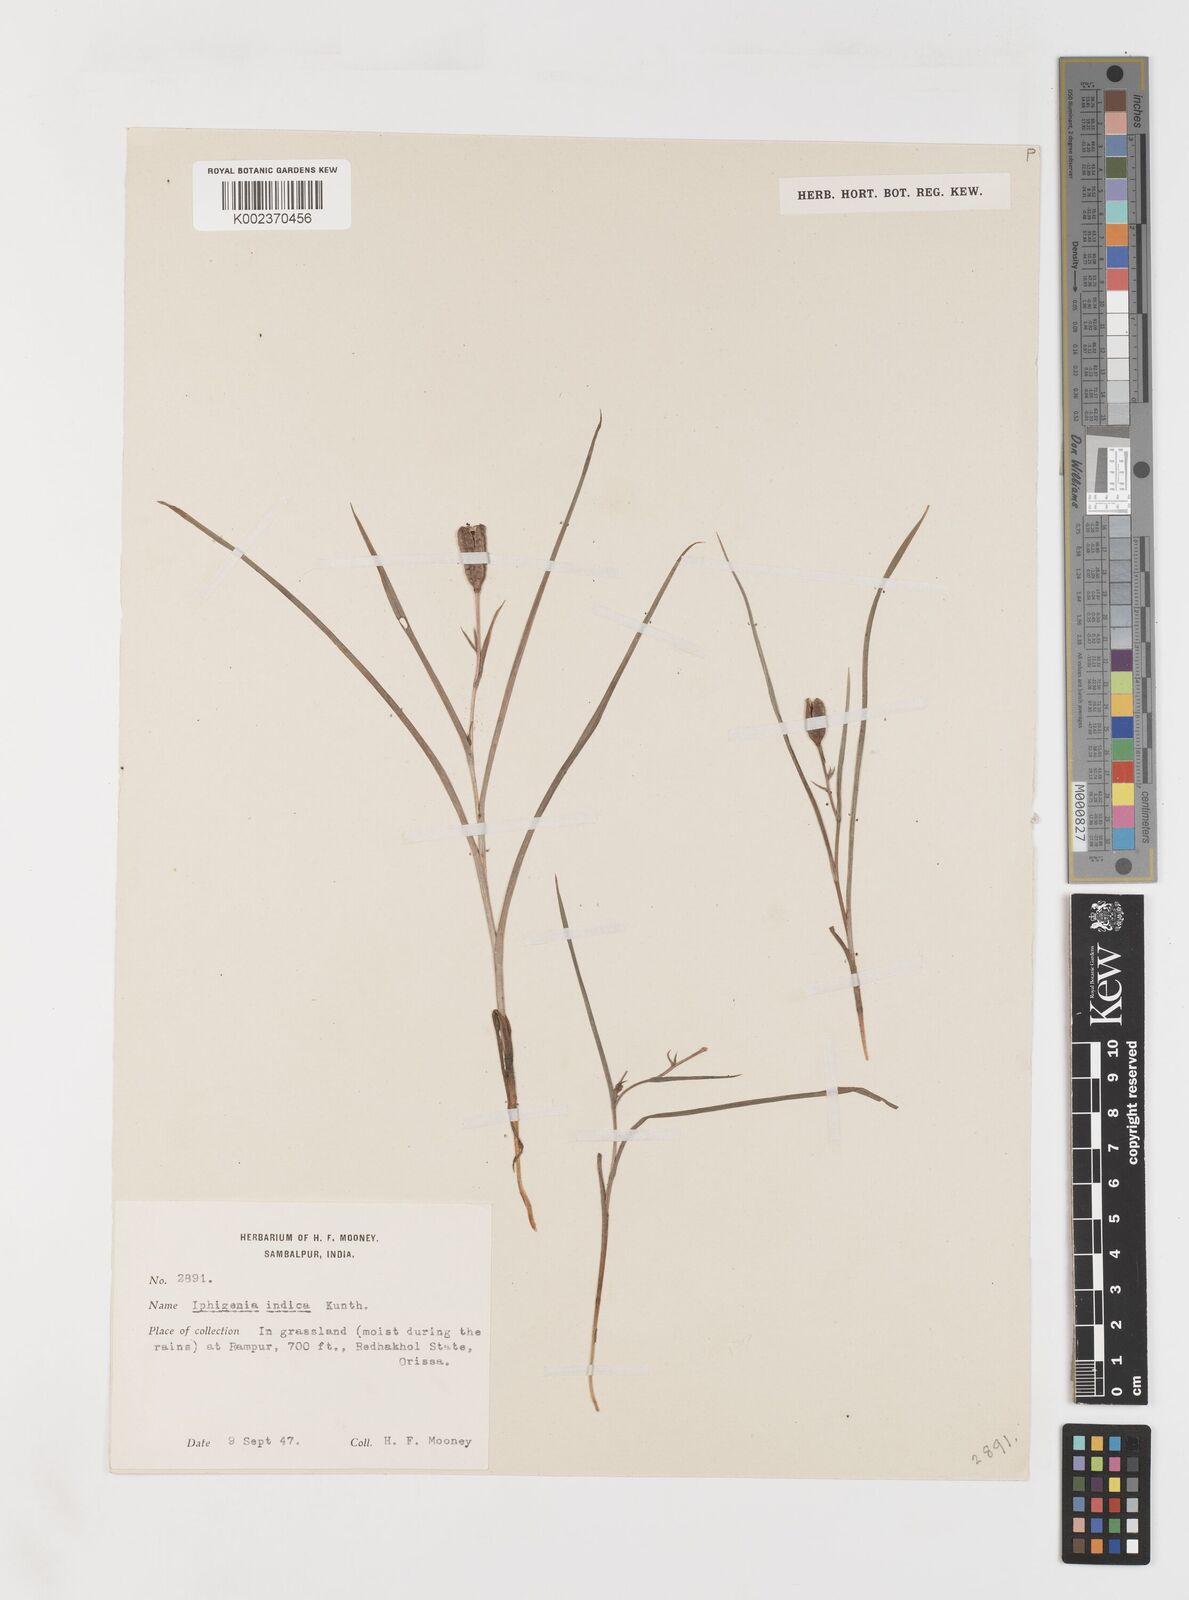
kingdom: Plantae
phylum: Tracheophyta
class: Liliopsida
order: Liliales
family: Colchicaceae
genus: Iphigenia
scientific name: Iphigenia indica
